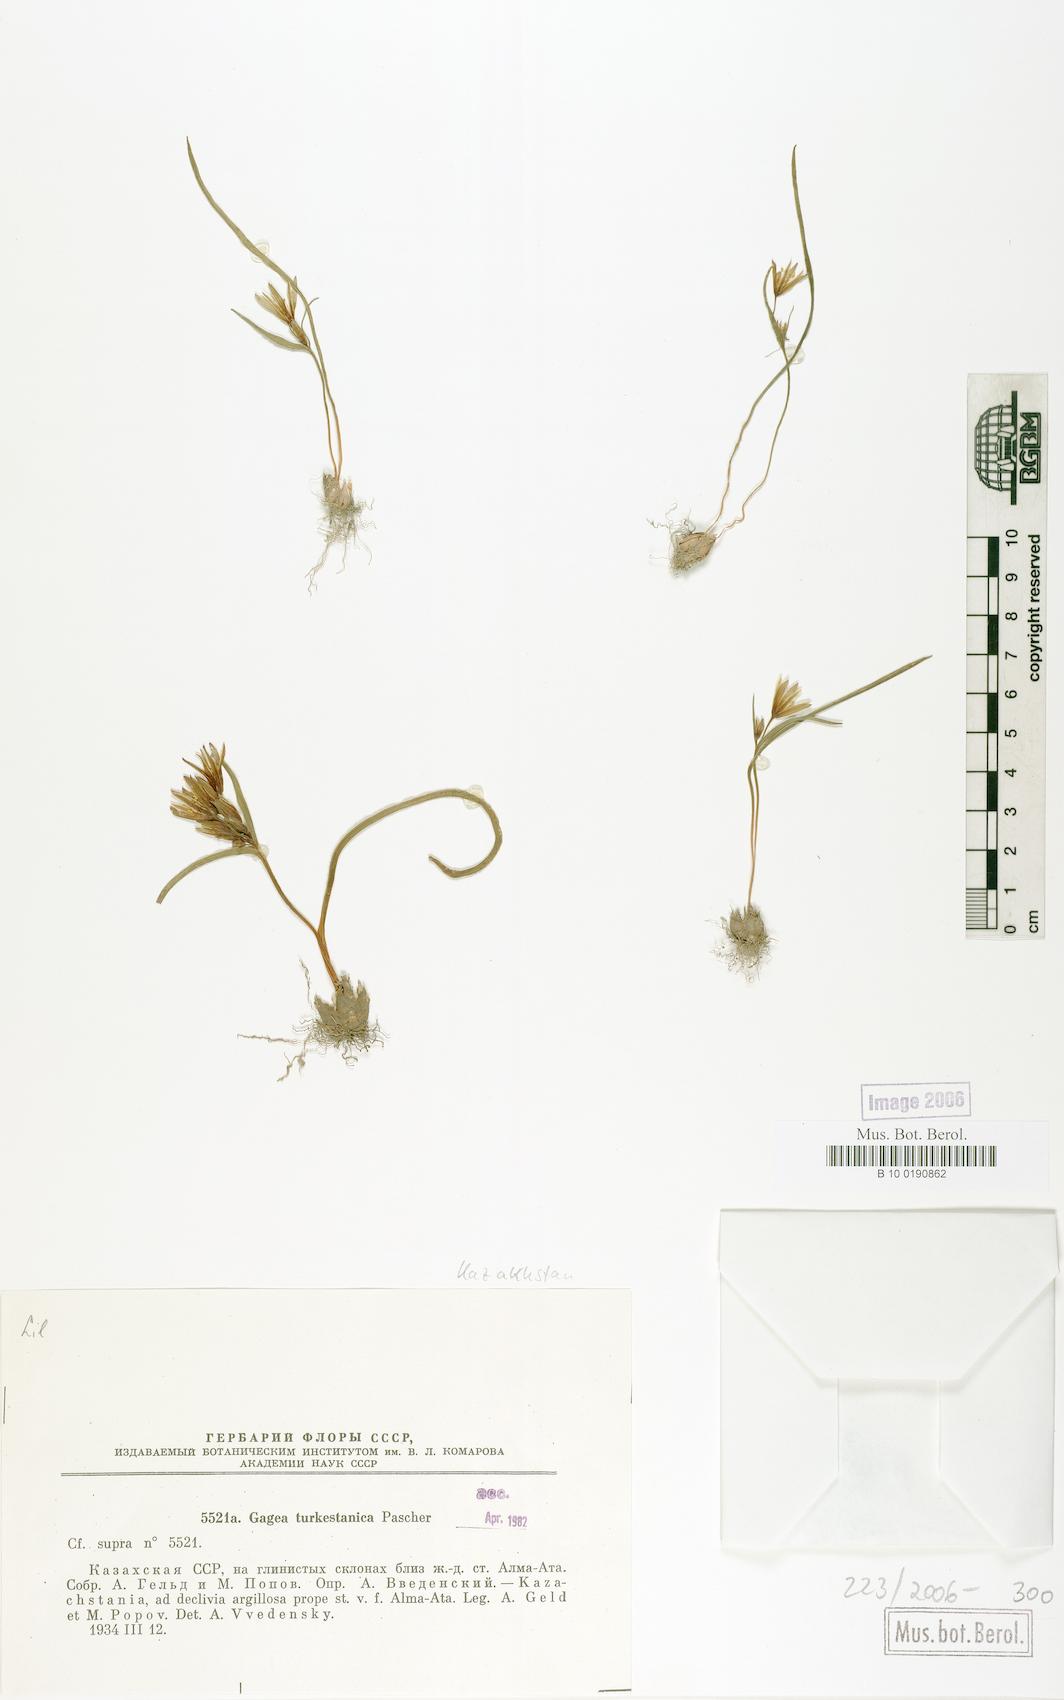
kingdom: Plantae
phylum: Tracheophyta
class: Liliopsida
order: Liliales
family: Liliaceae
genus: Gagea
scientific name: Gagea capusii
